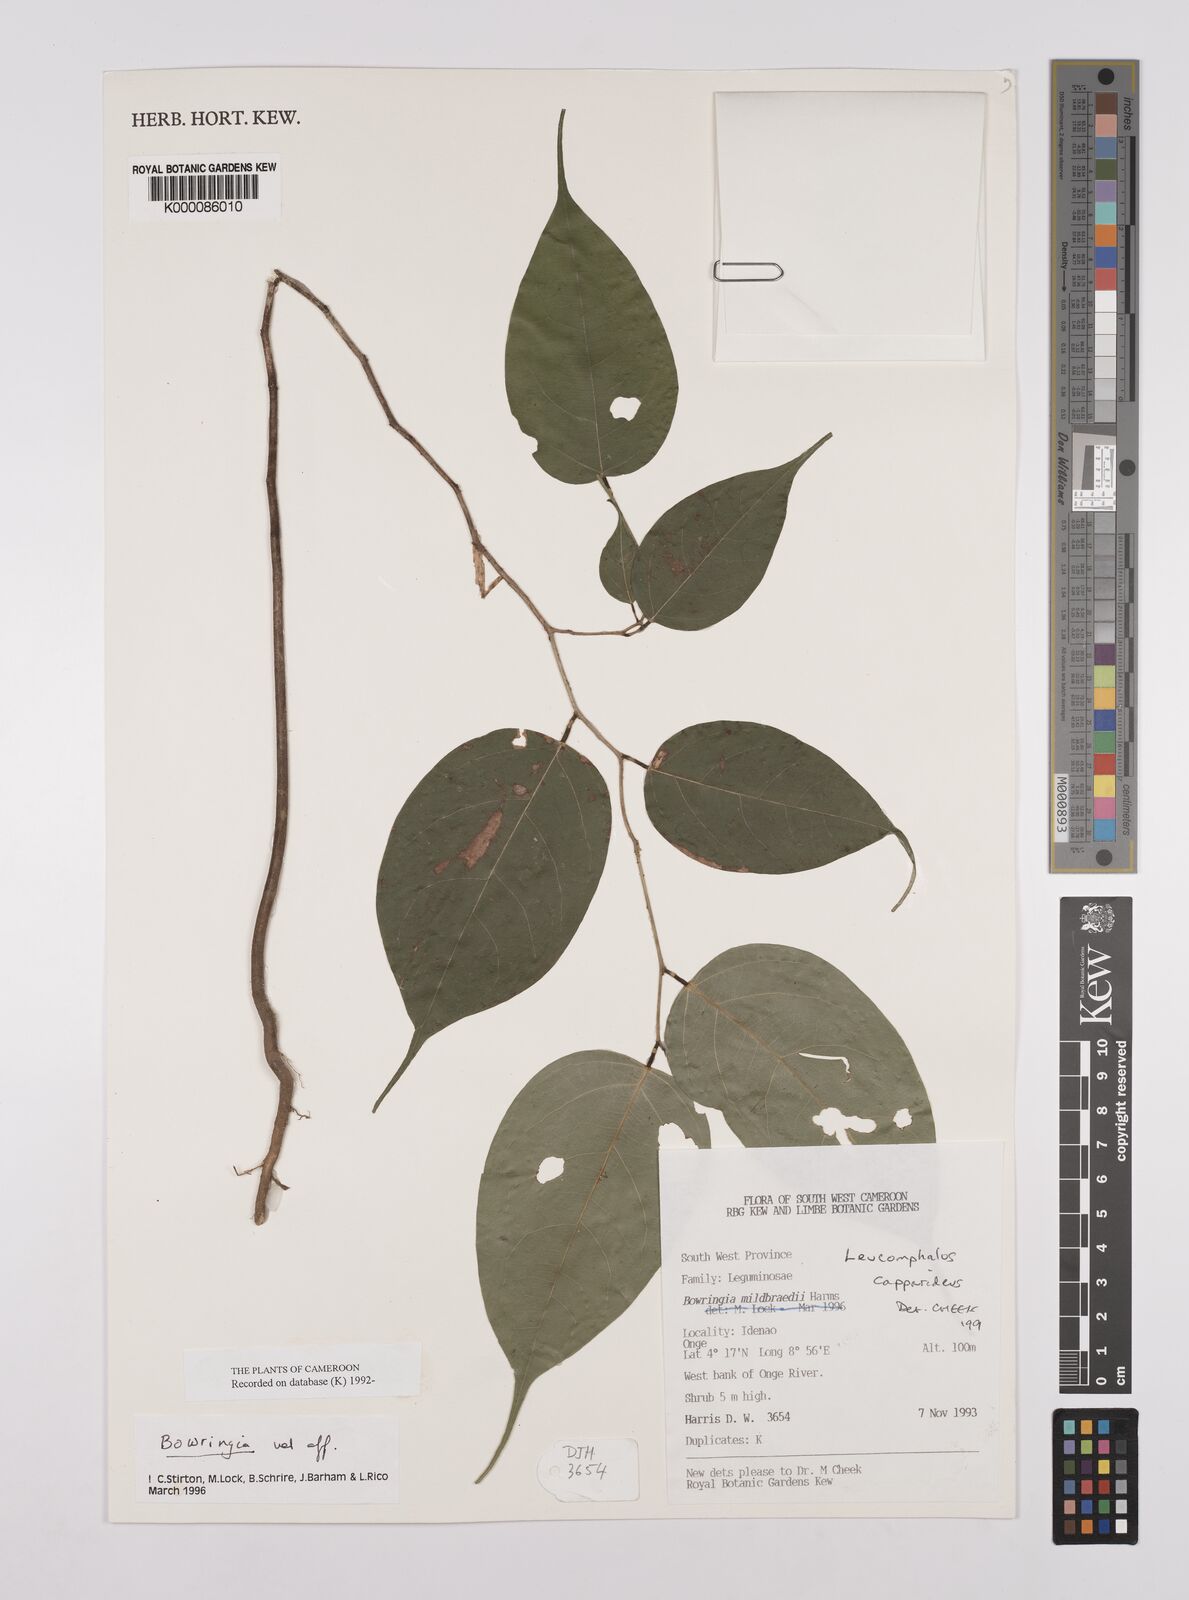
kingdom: Plantae
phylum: Tracheophyta
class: Magnoliopsida
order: Fabales
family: Fabaceae
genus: Leucomphalos
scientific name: Leucomphalos
